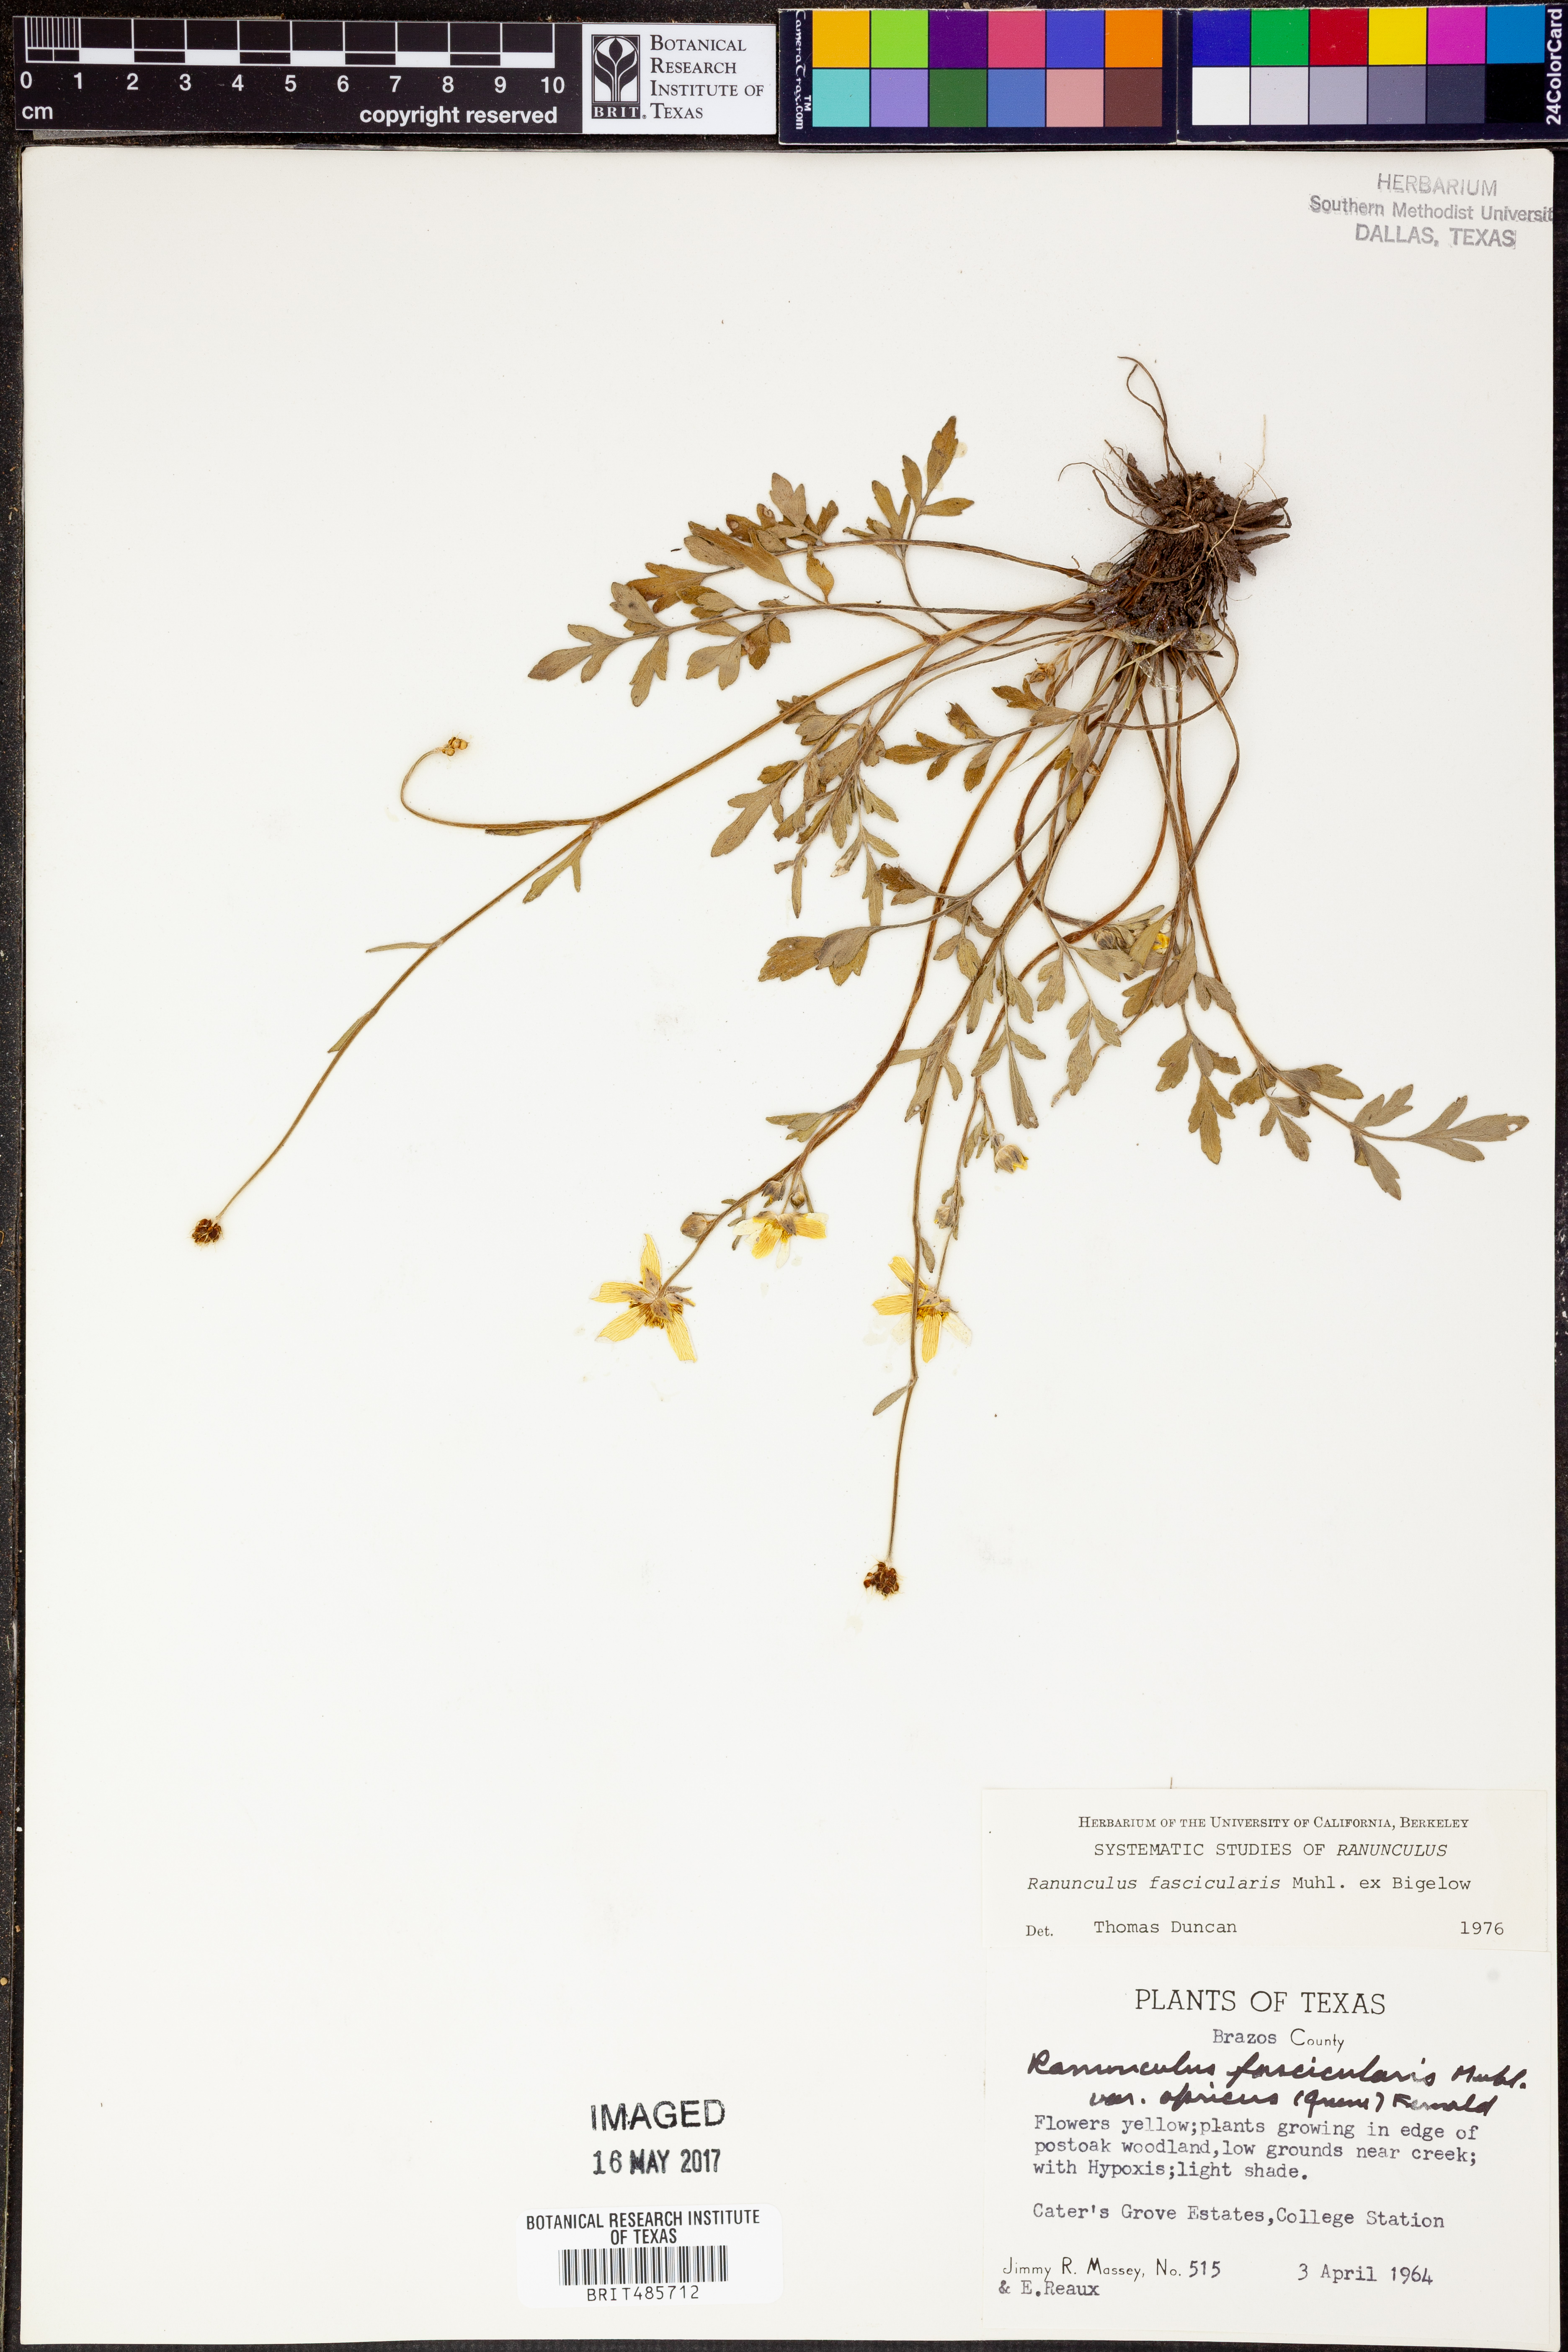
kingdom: Plantae
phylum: Tracheophyta
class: Magnoliopsida
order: Ranunculales
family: Ranunculaceae
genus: Ranunculus
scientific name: Ranunculus fascicularis
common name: Early buttercup
